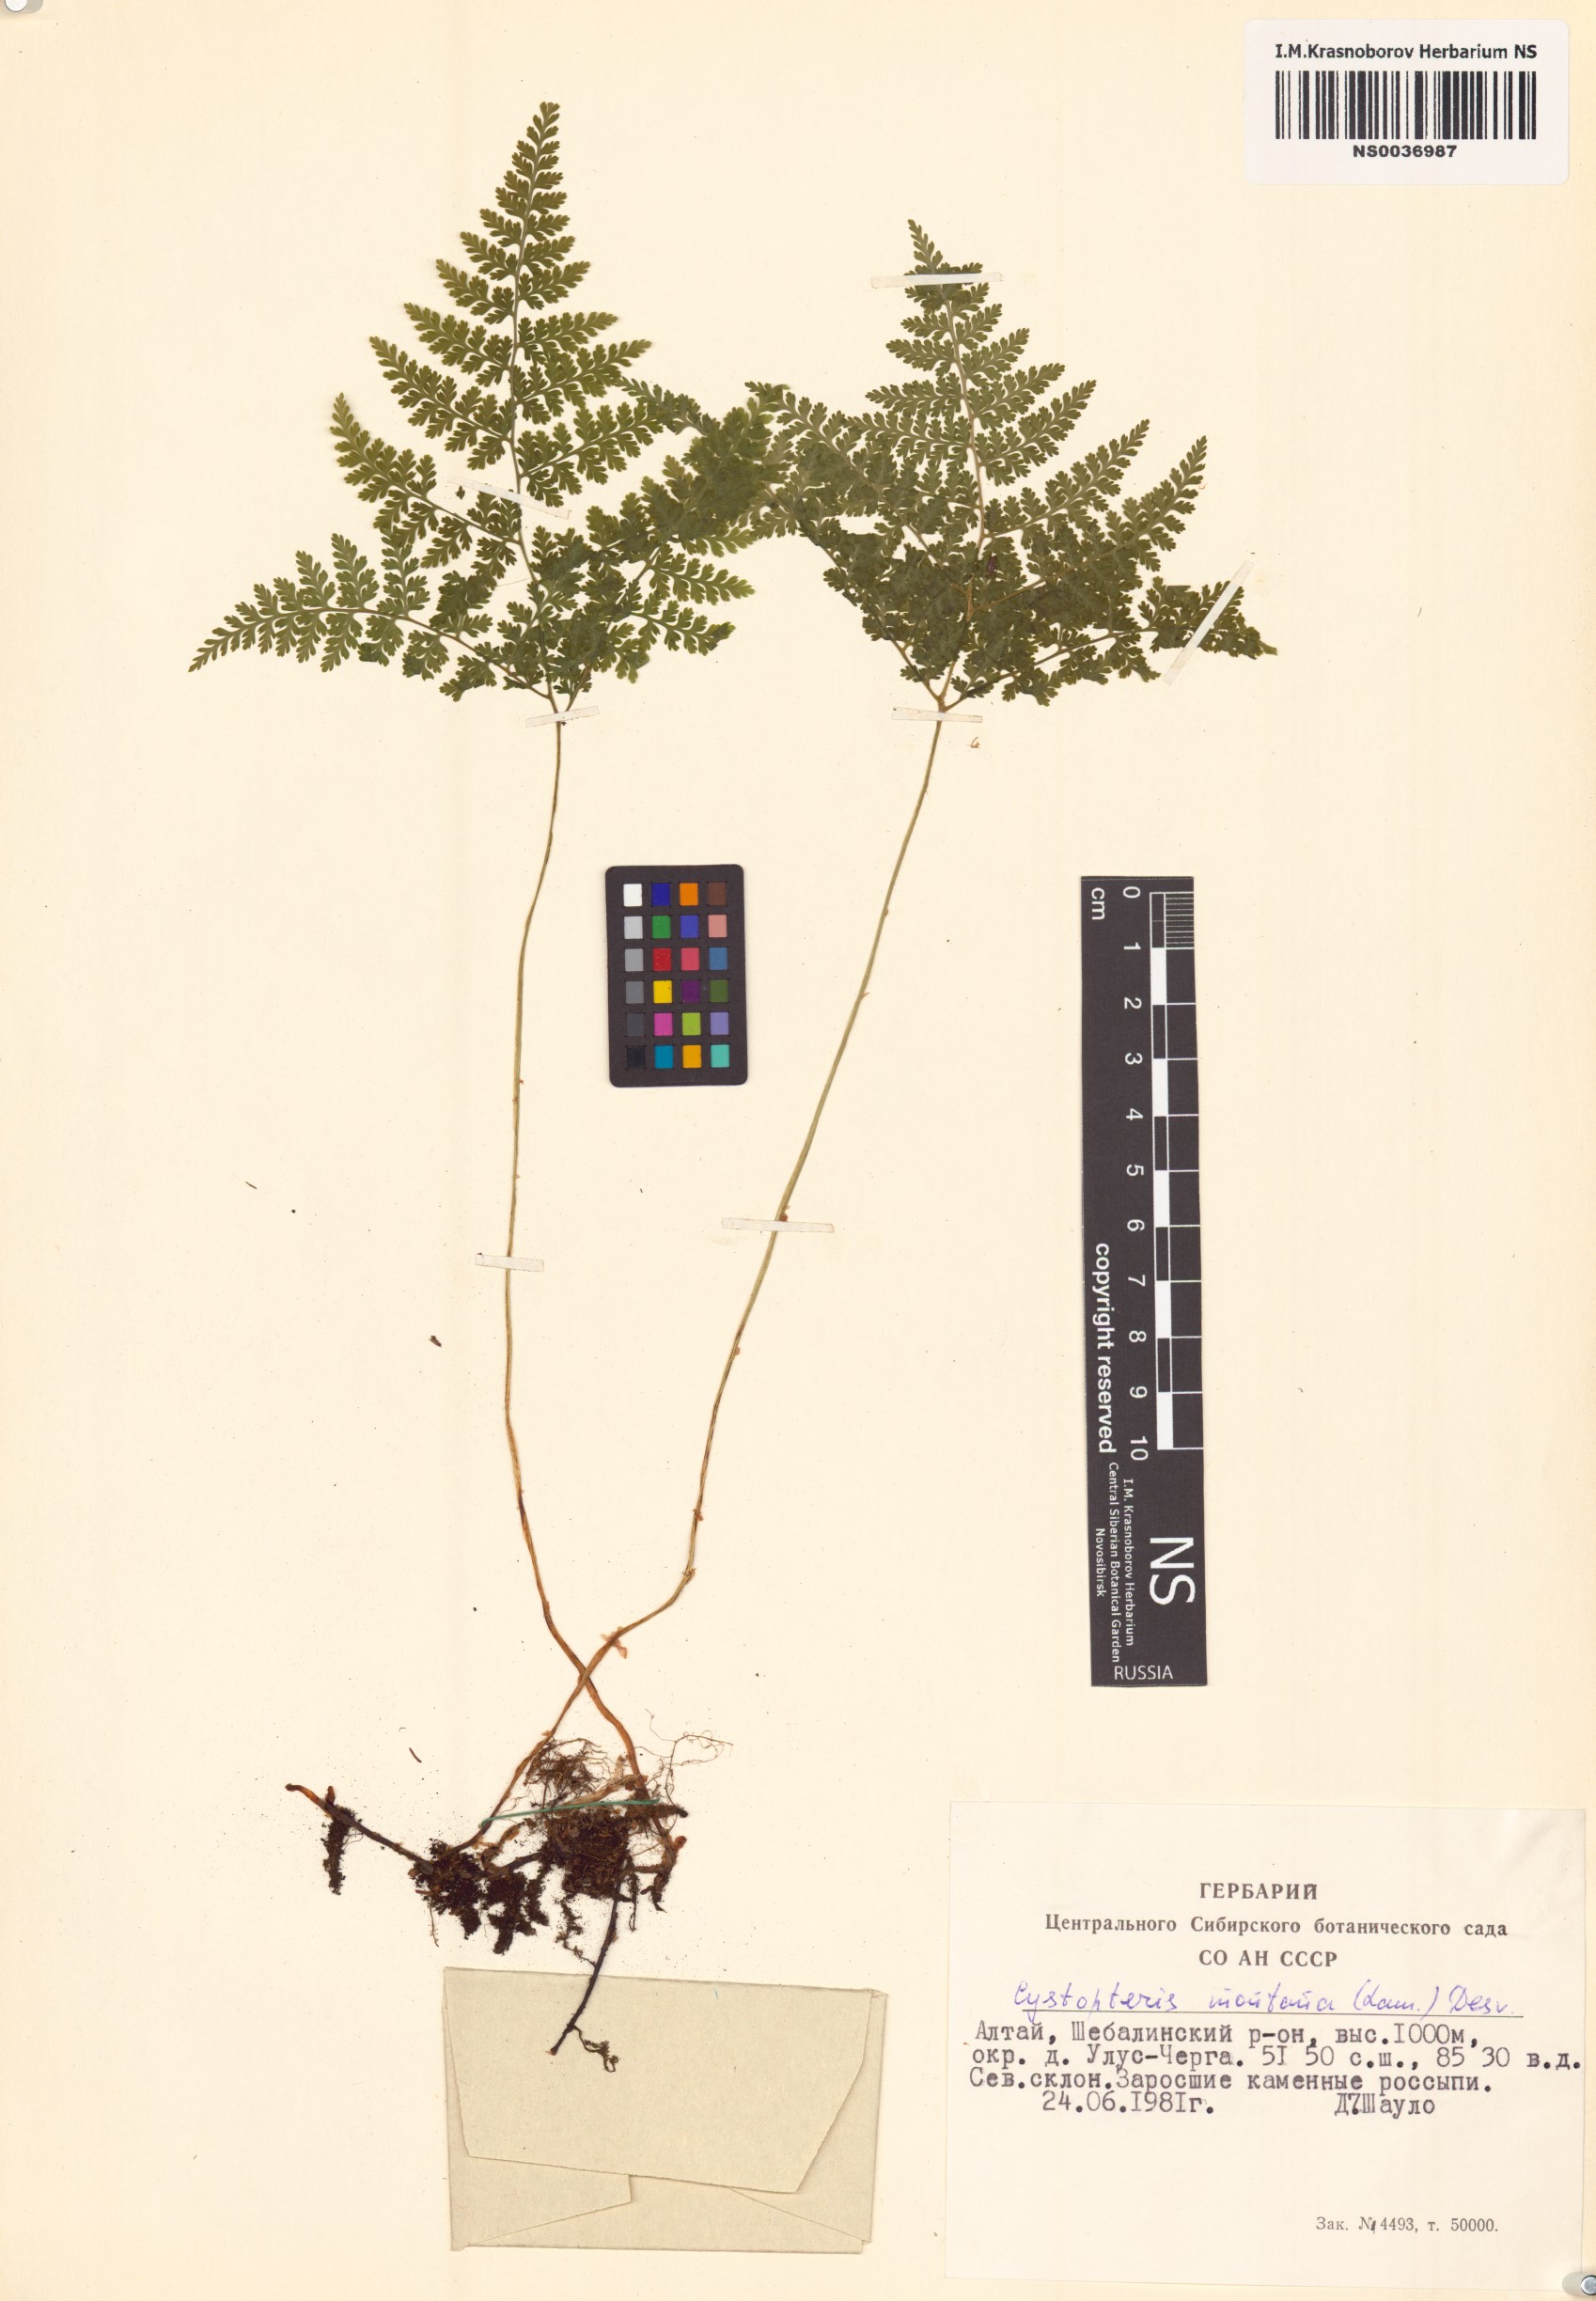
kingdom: Plantae
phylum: Tracheophyta
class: Polypodiopsida
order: Polypodiales
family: Cystopteridaceae
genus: Cystopteris
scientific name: Cystopteris montana
